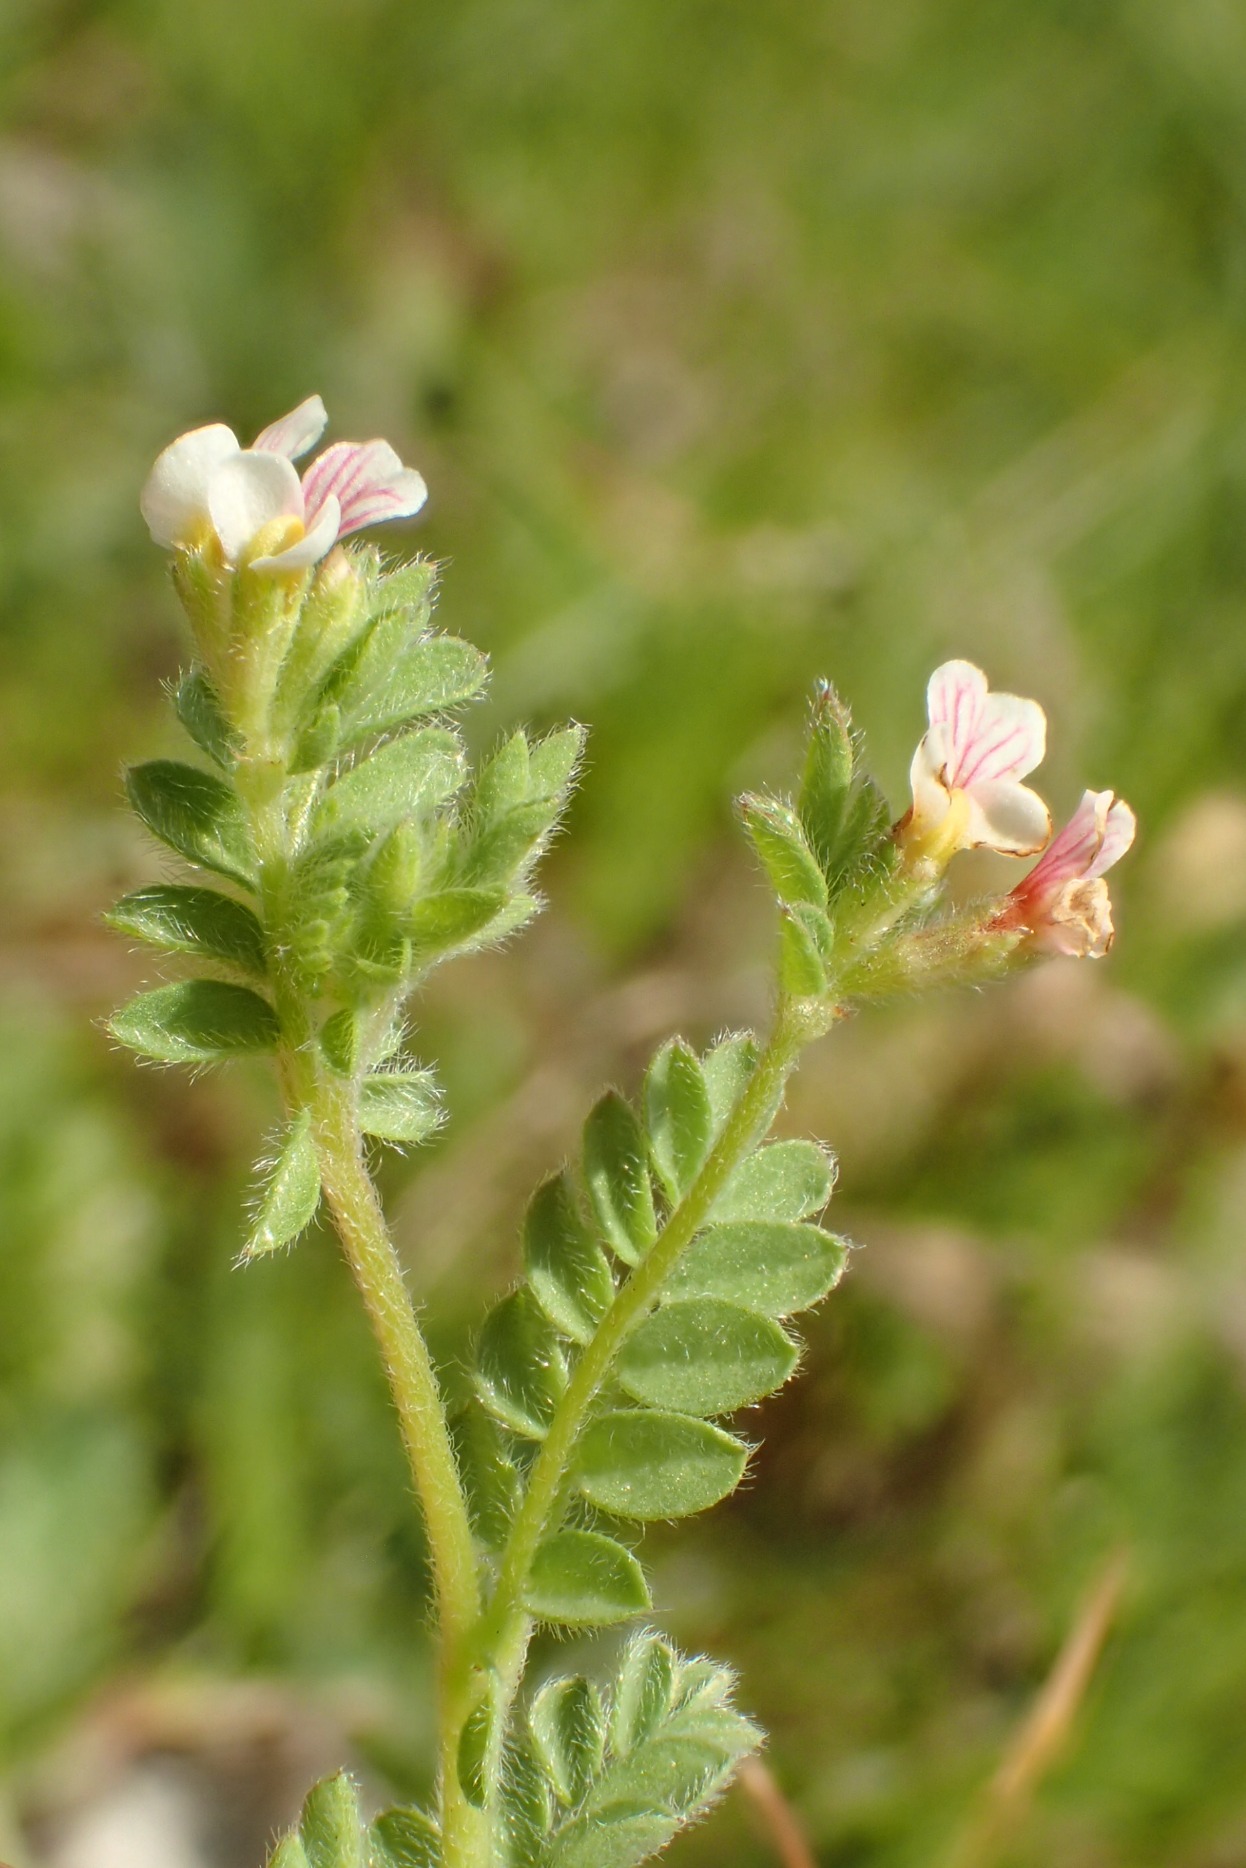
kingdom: Plantae
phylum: Tracheophyta
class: Magnoliopsida
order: Fabales
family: Fabaceae
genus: Ornithopus
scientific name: Ornithopus perpusillus
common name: Liden fugleklo
